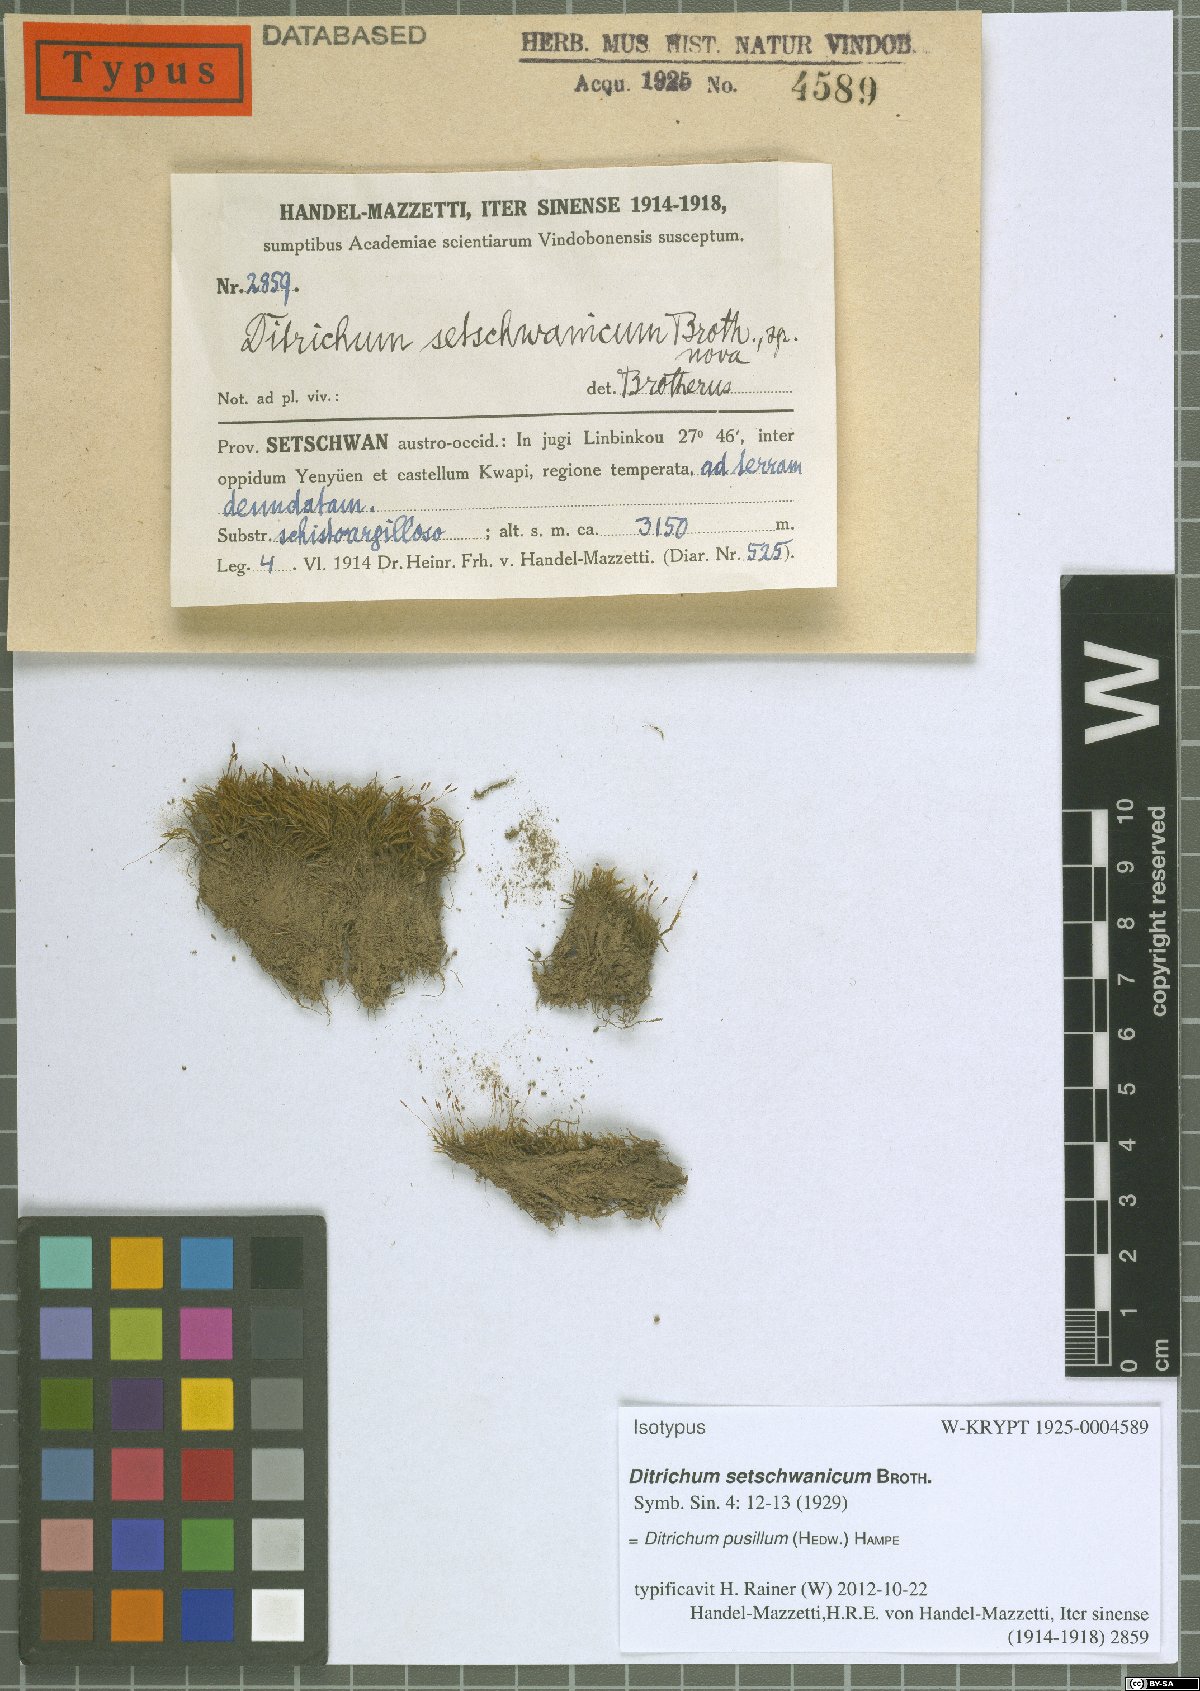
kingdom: Plantae
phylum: Bryophyta
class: Bryopsida
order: Dicranales
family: Ditrichaceae
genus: Ditrichum
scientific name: Ditrichum pusillum
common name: Brown cow-hair moss
